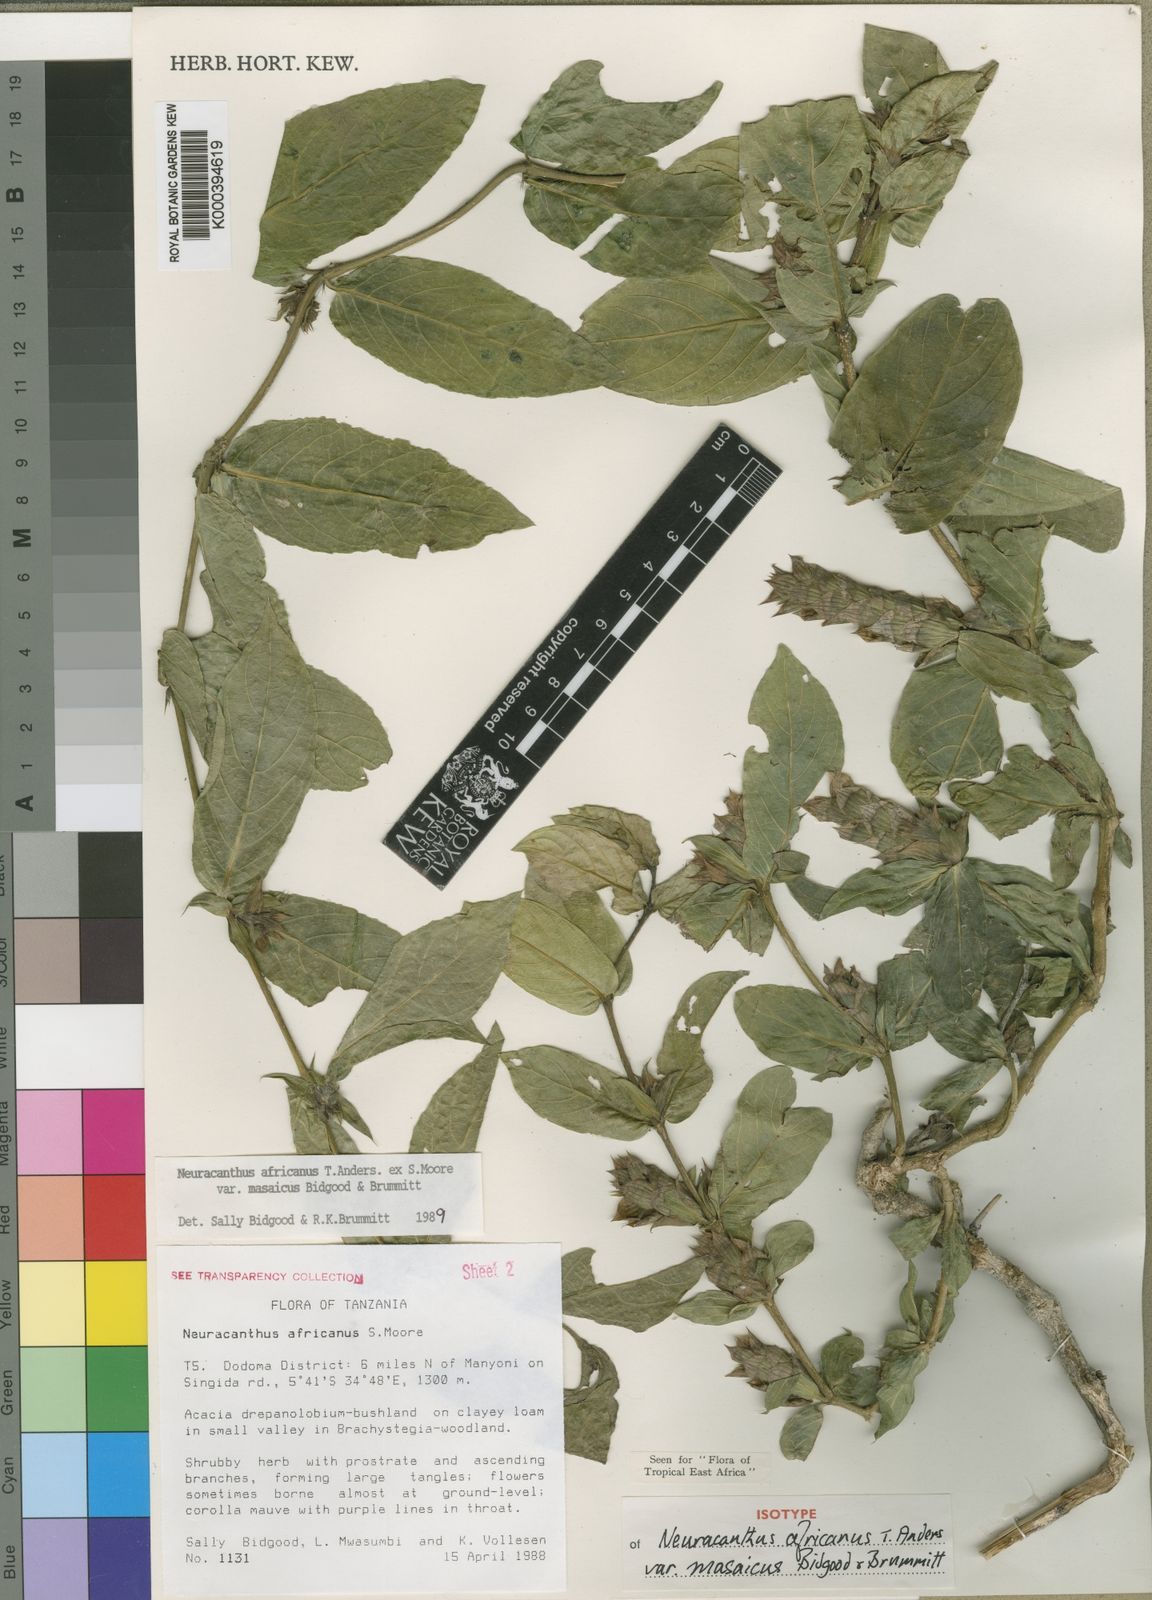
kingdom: Plantae
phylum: Tracheophyta
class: Magnoliopsida
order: Lamiales
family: Acanthaceae
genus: Neuracanthus
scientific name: Neuracanthus africanus
